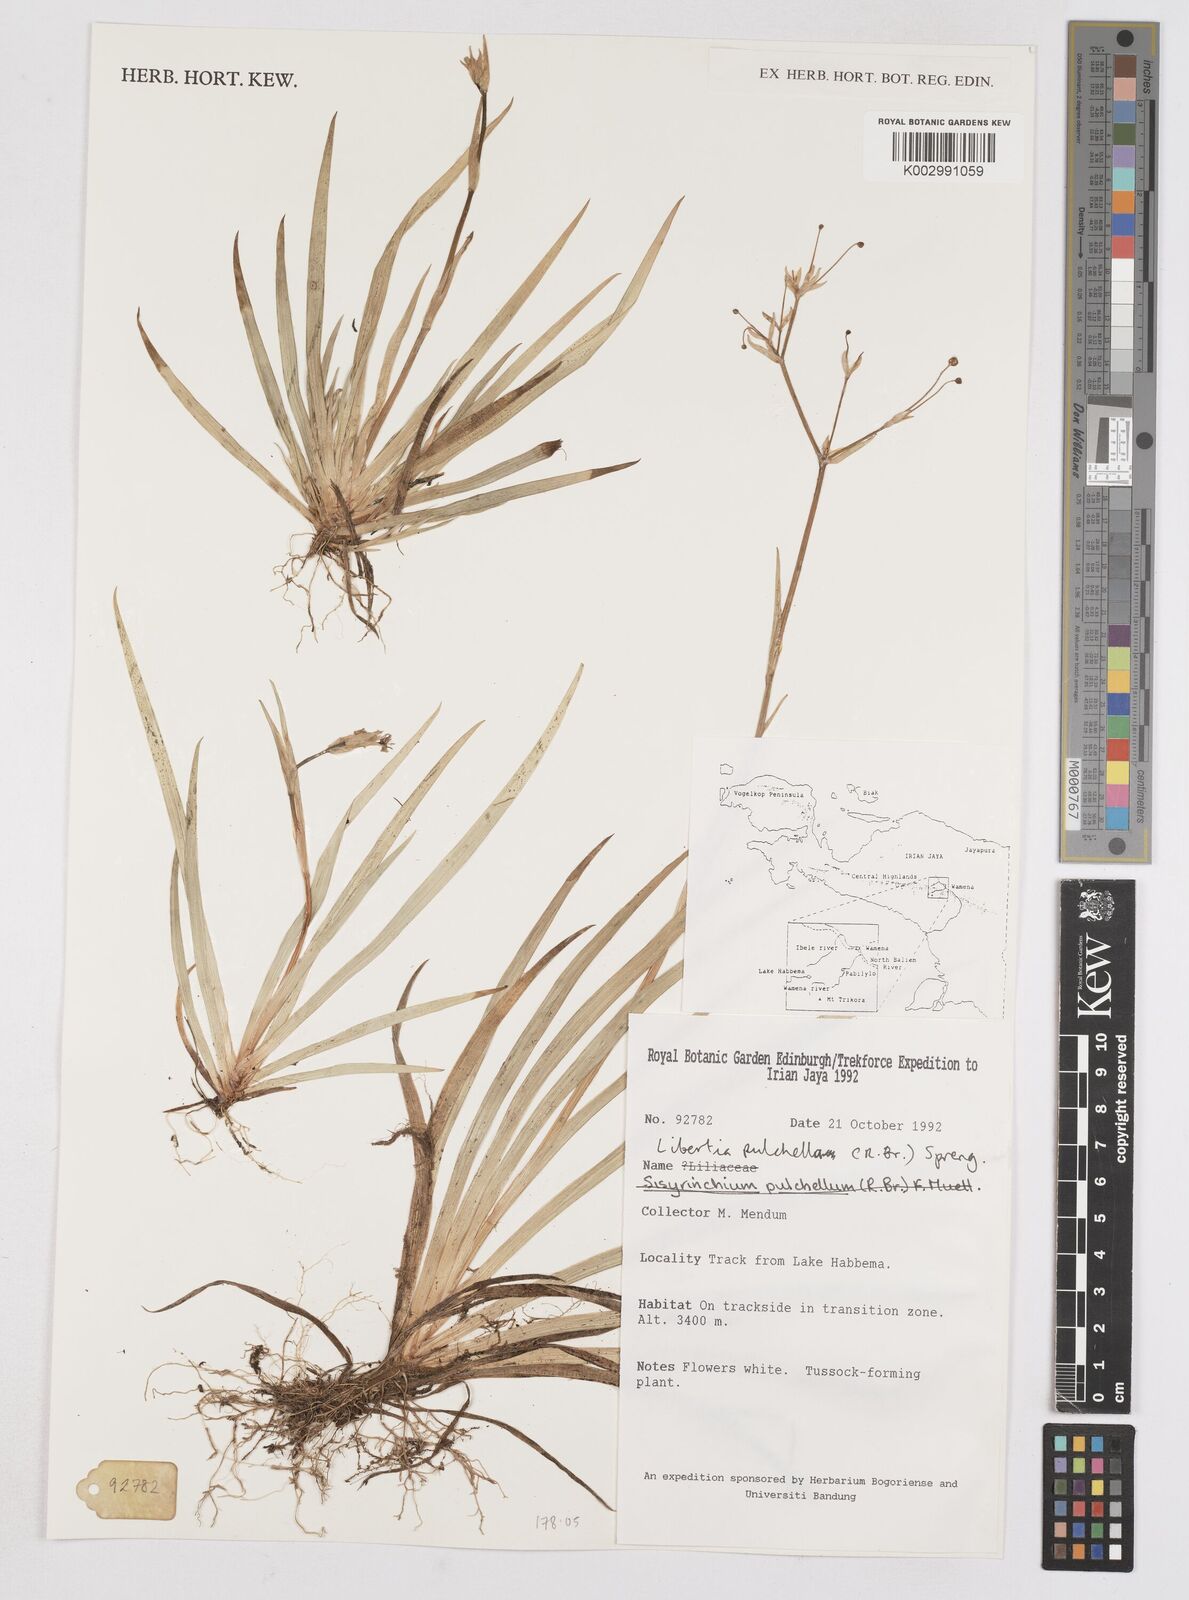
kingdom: Plantae
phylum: Tracheophyta
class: Liliopsida
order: Asparagales
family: Iridaceae
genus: Libertia
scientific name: Libertia pulchella
